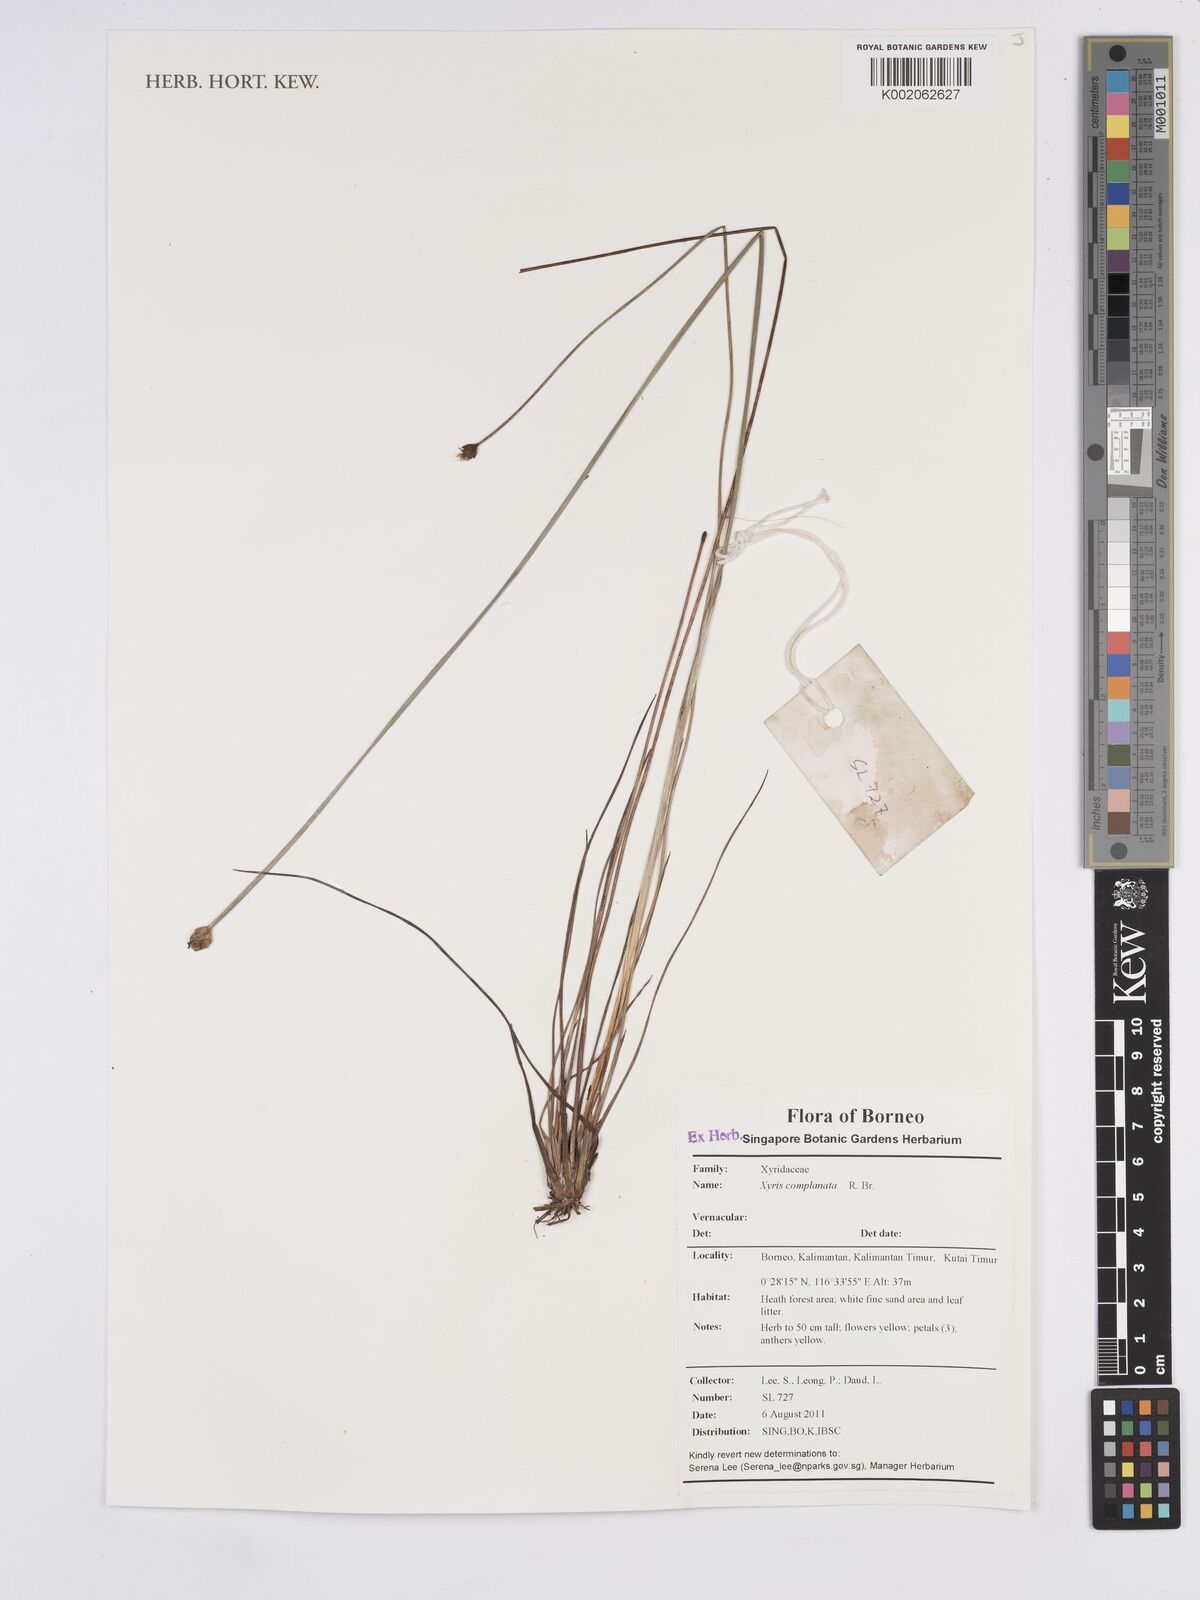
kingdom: Plantae
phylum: Tracheophyta
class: Liliopsida
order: Poales
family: Xyridaceae
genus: Xyris
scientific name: Xyris complanata
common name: Hawai'i yelloweyed grass
